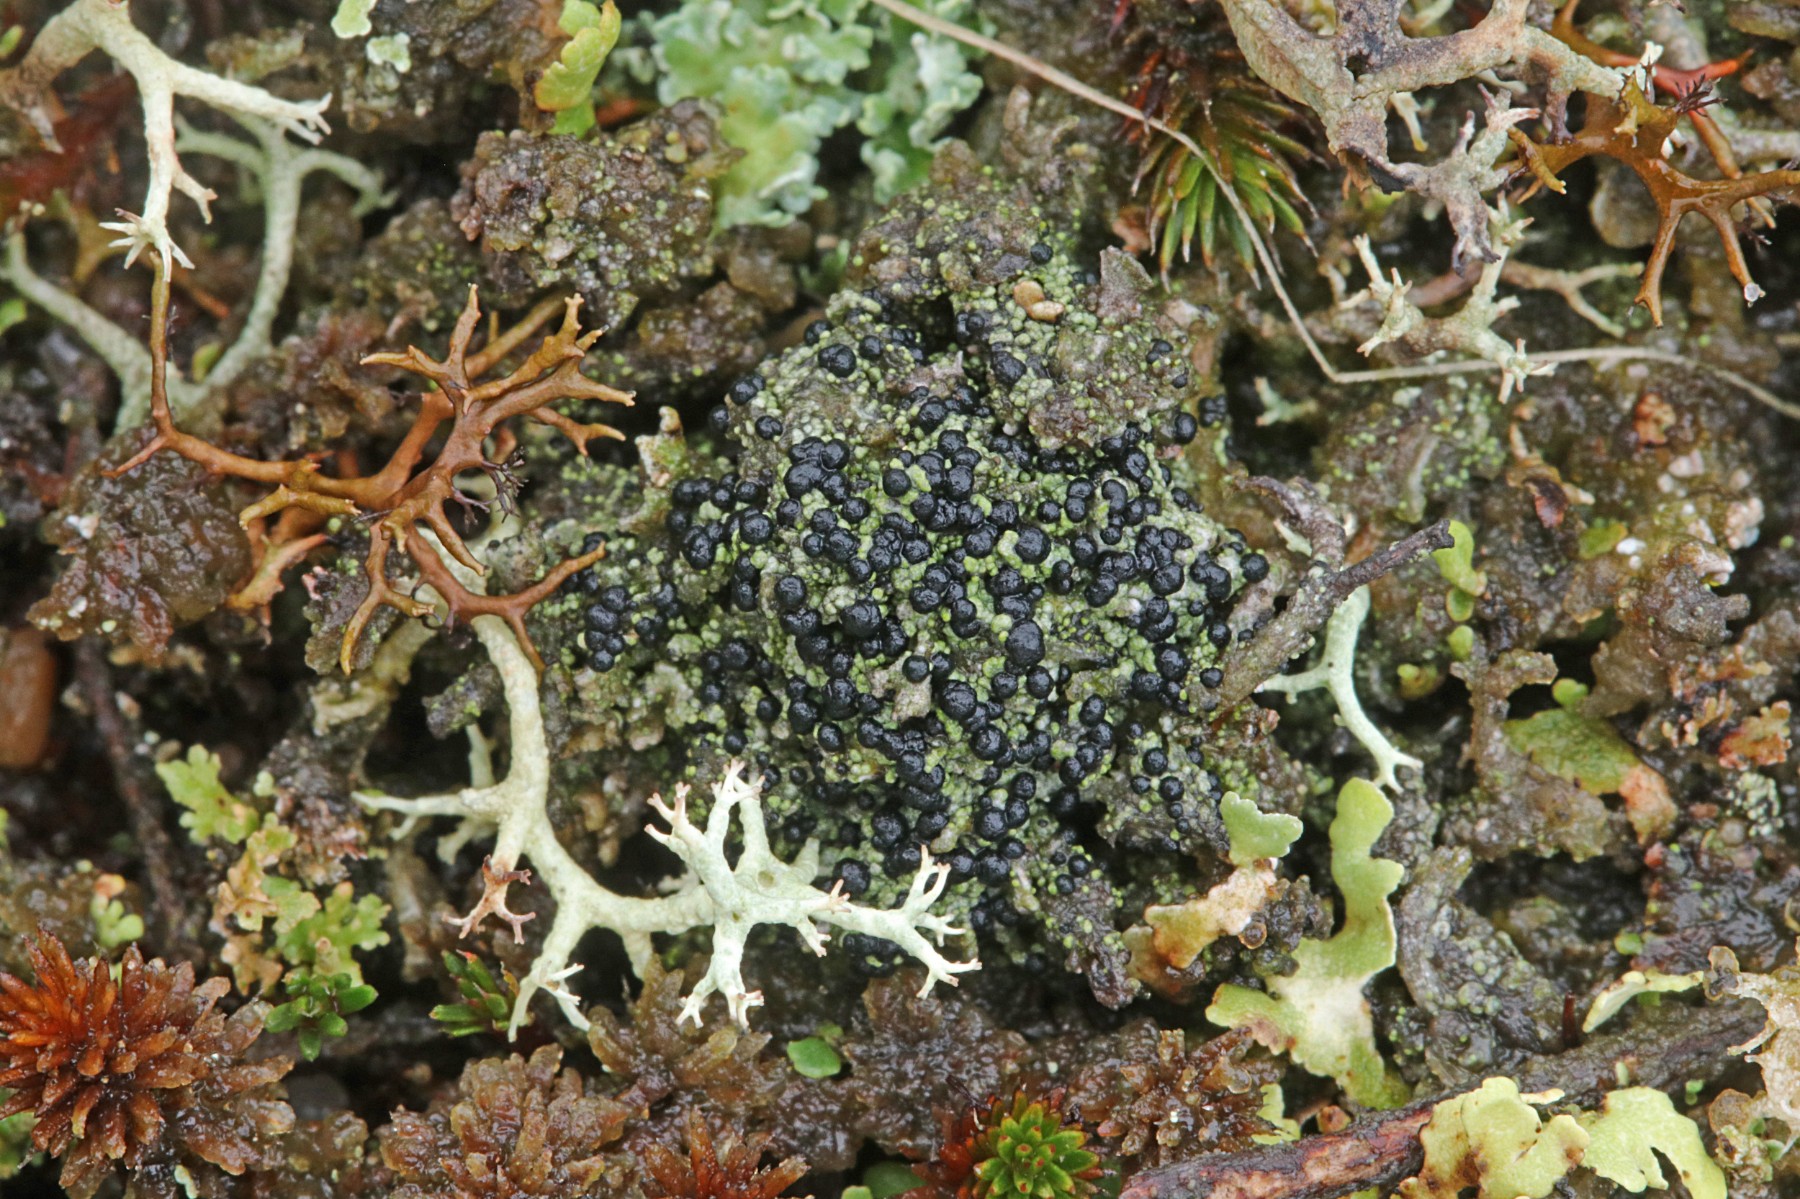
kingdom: Fungi
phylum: Ascomycota
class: Lecanoromycetes
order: Lecanorales
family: Byssolomataceae
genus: Micarea
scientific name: Micarea lignaria
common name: tørve-knaplav
